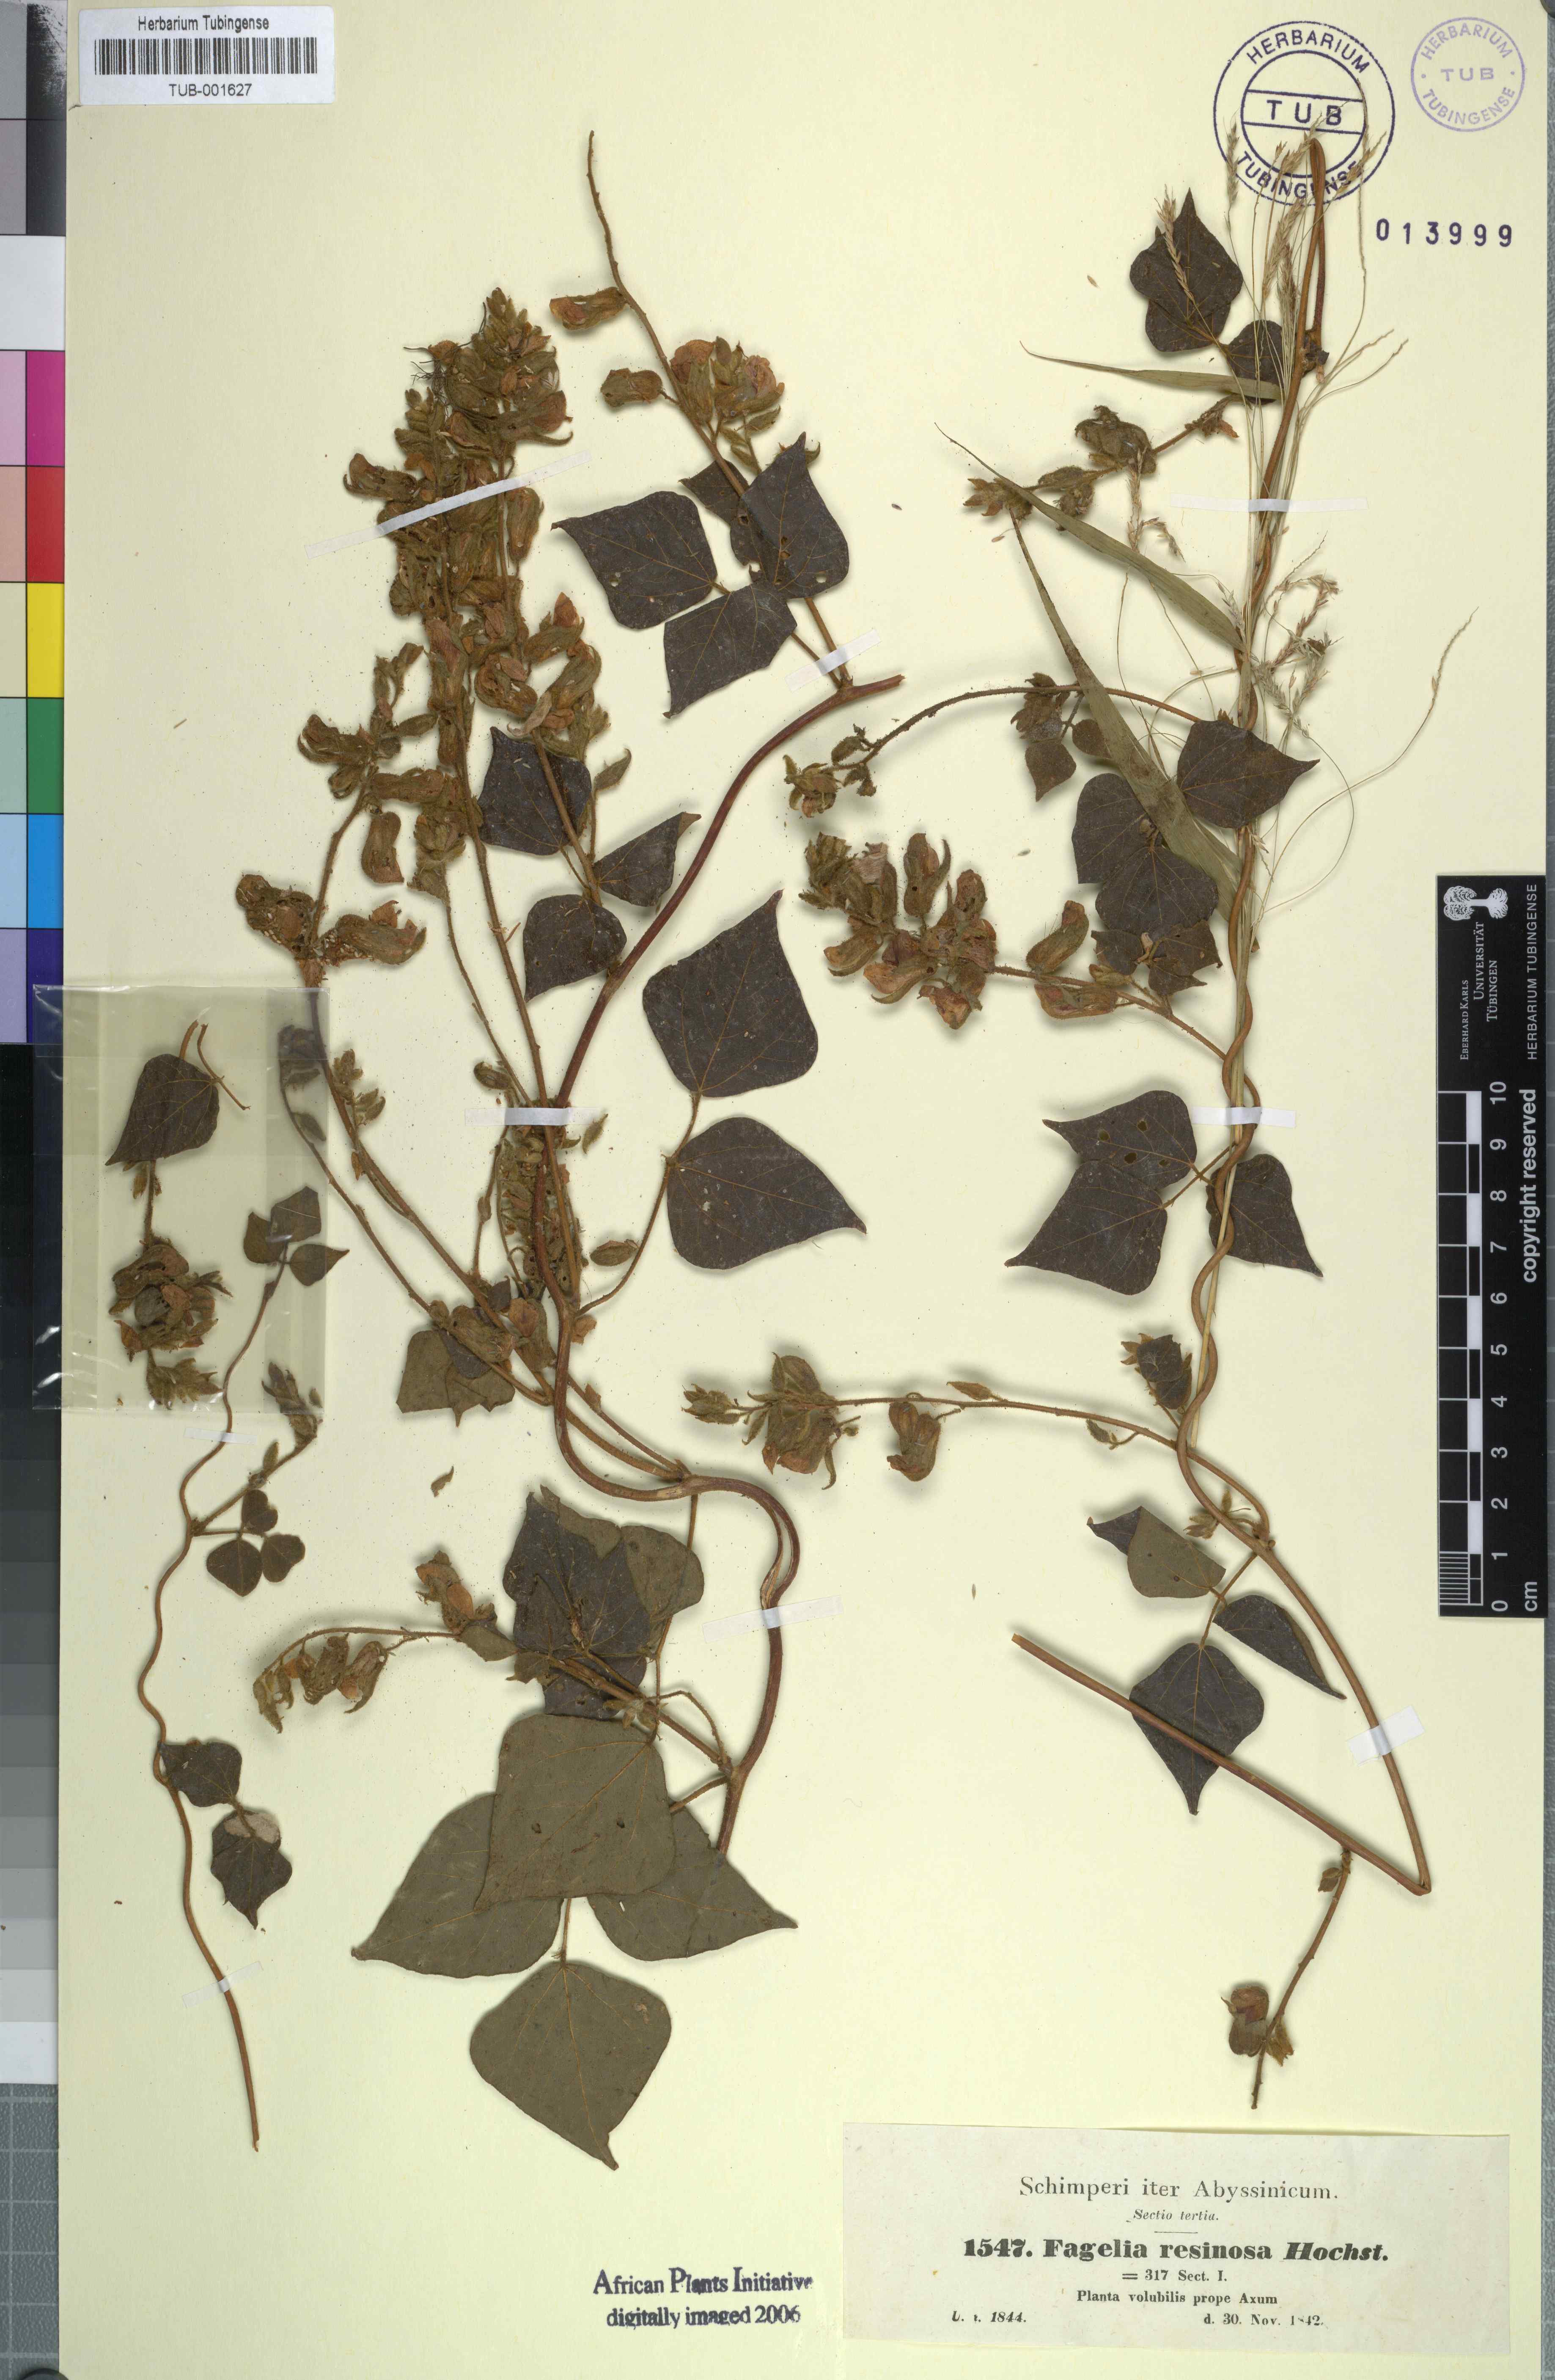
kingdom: Plantae
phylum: Tracheophyta
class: Magnoliopsida
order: Fabales
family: Fabaceae
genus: Rhynchosia
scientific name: Rhynchosia resinosa
